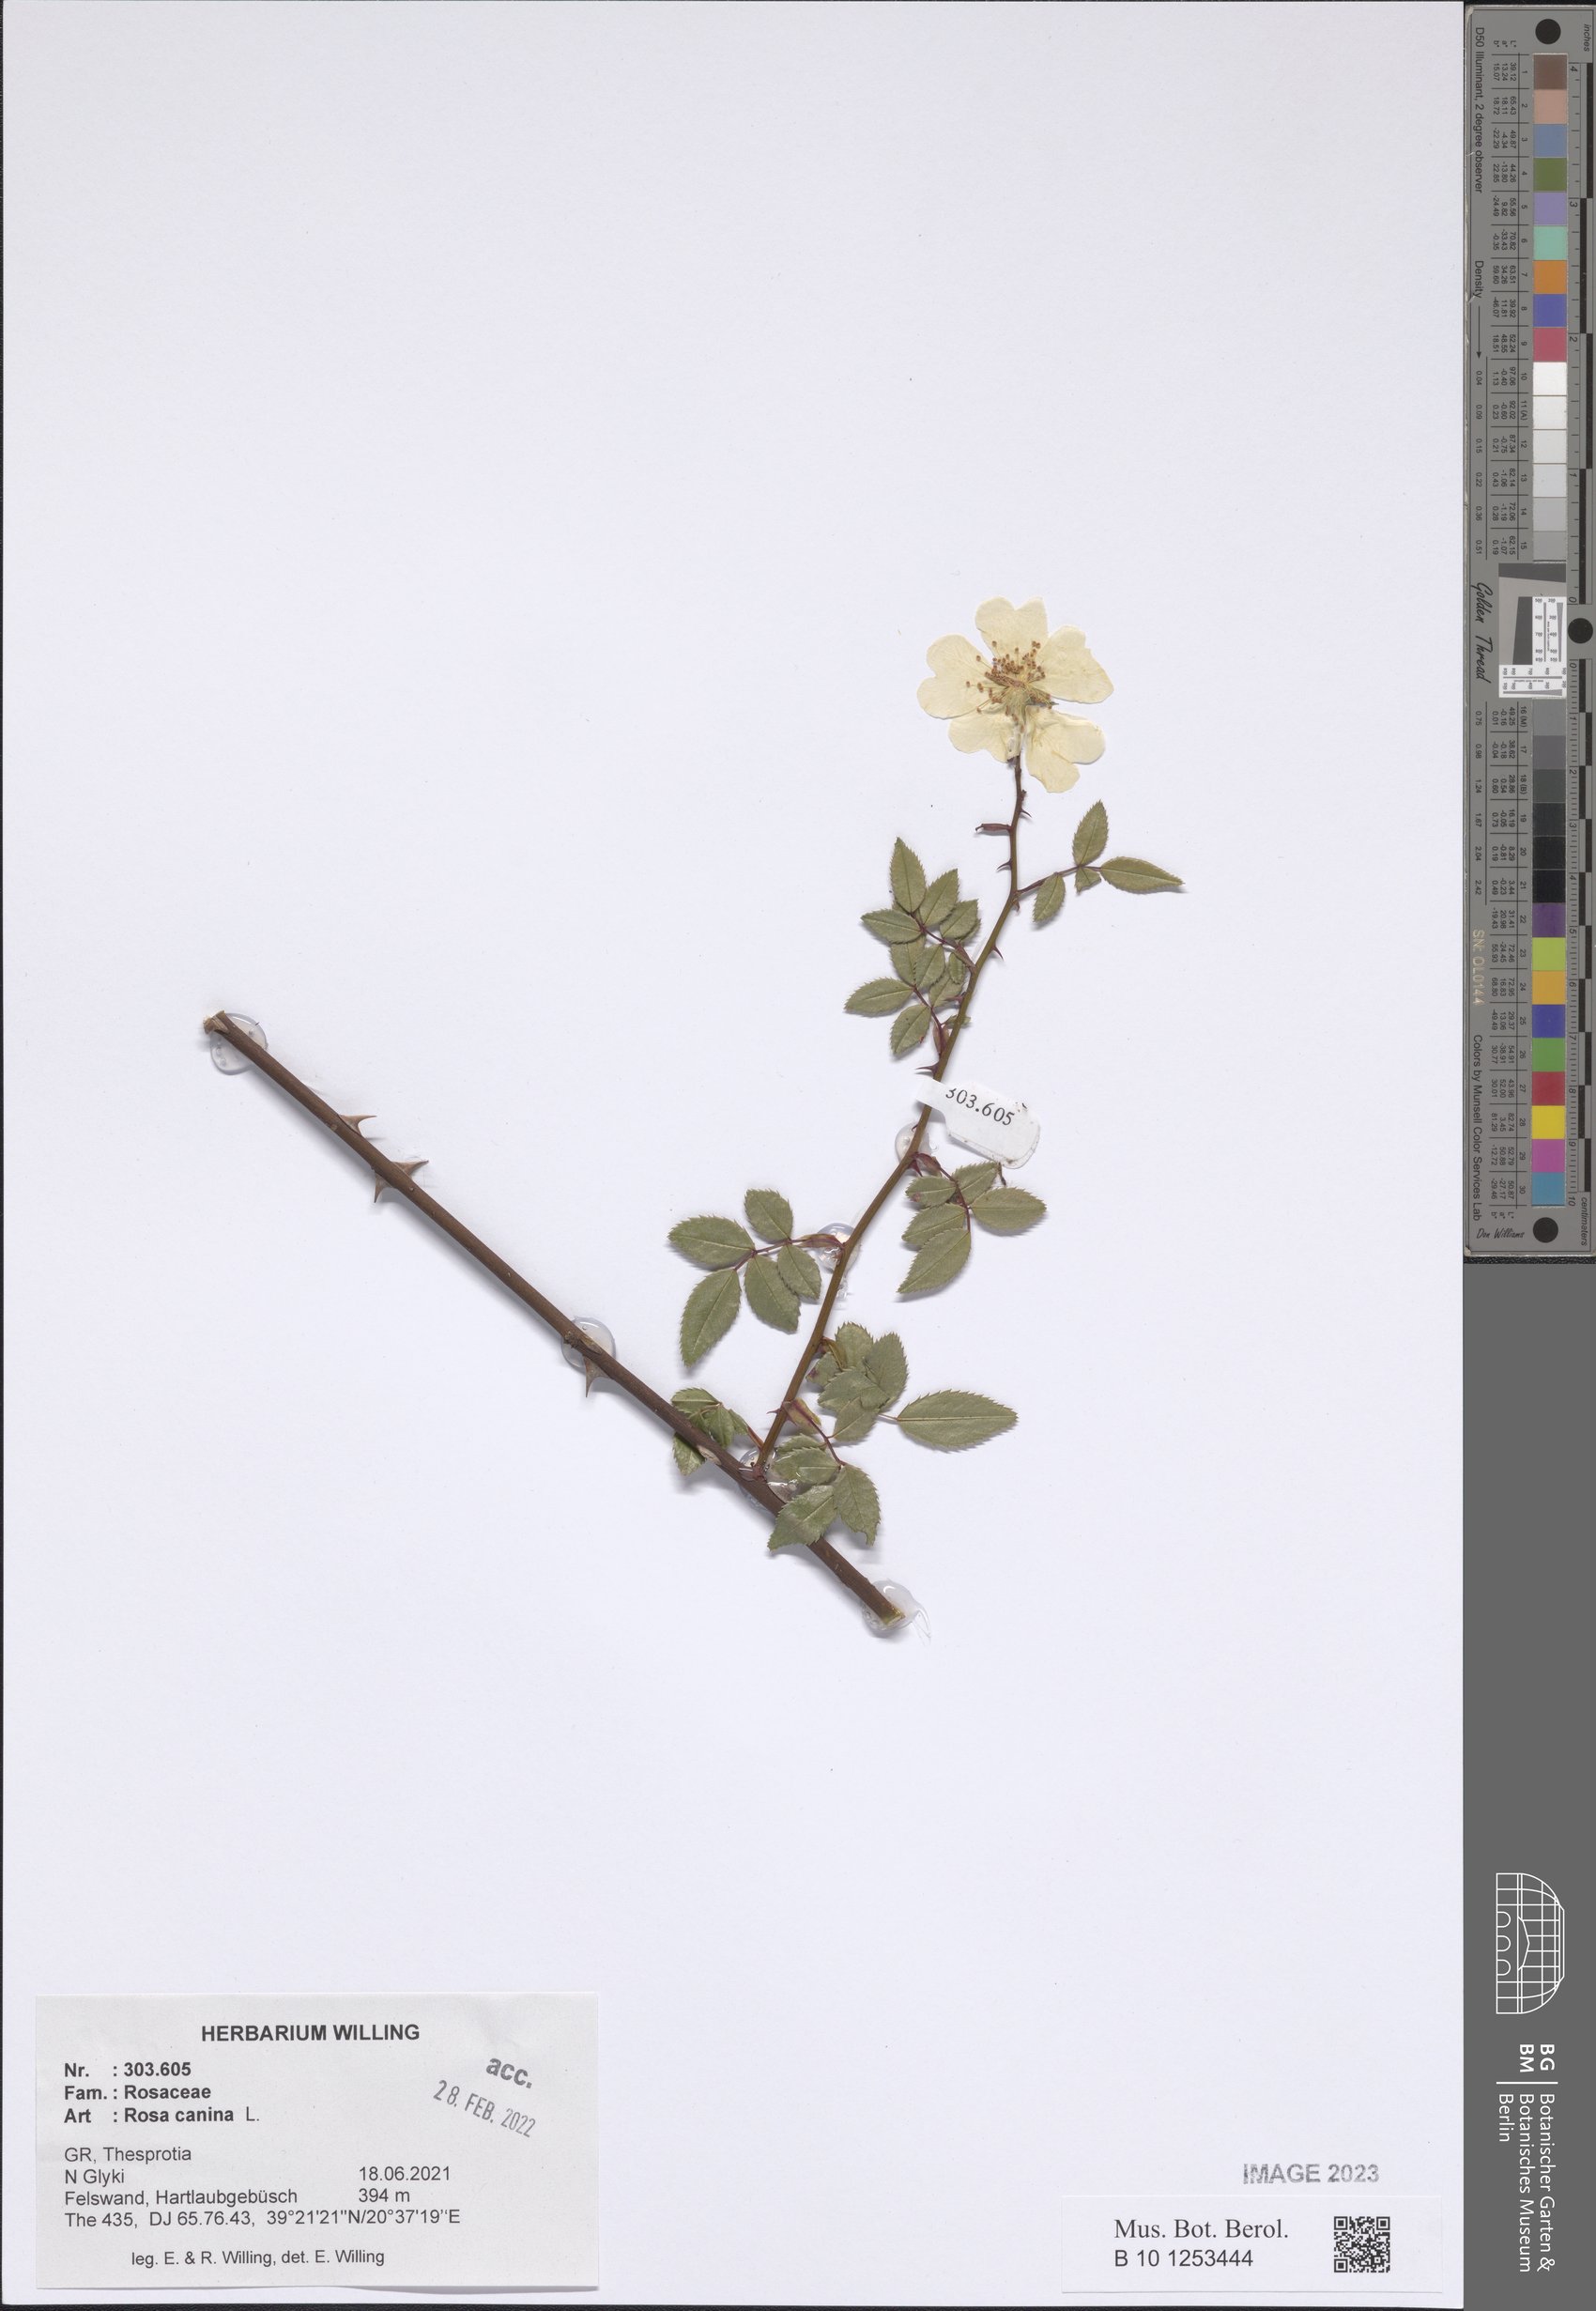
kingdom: Plantae
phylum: Tracheophyta
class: Magnoliopsida
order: Rosales
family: Rosaceae
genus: Rosa
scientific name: Rosa canina
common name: Dog rose
